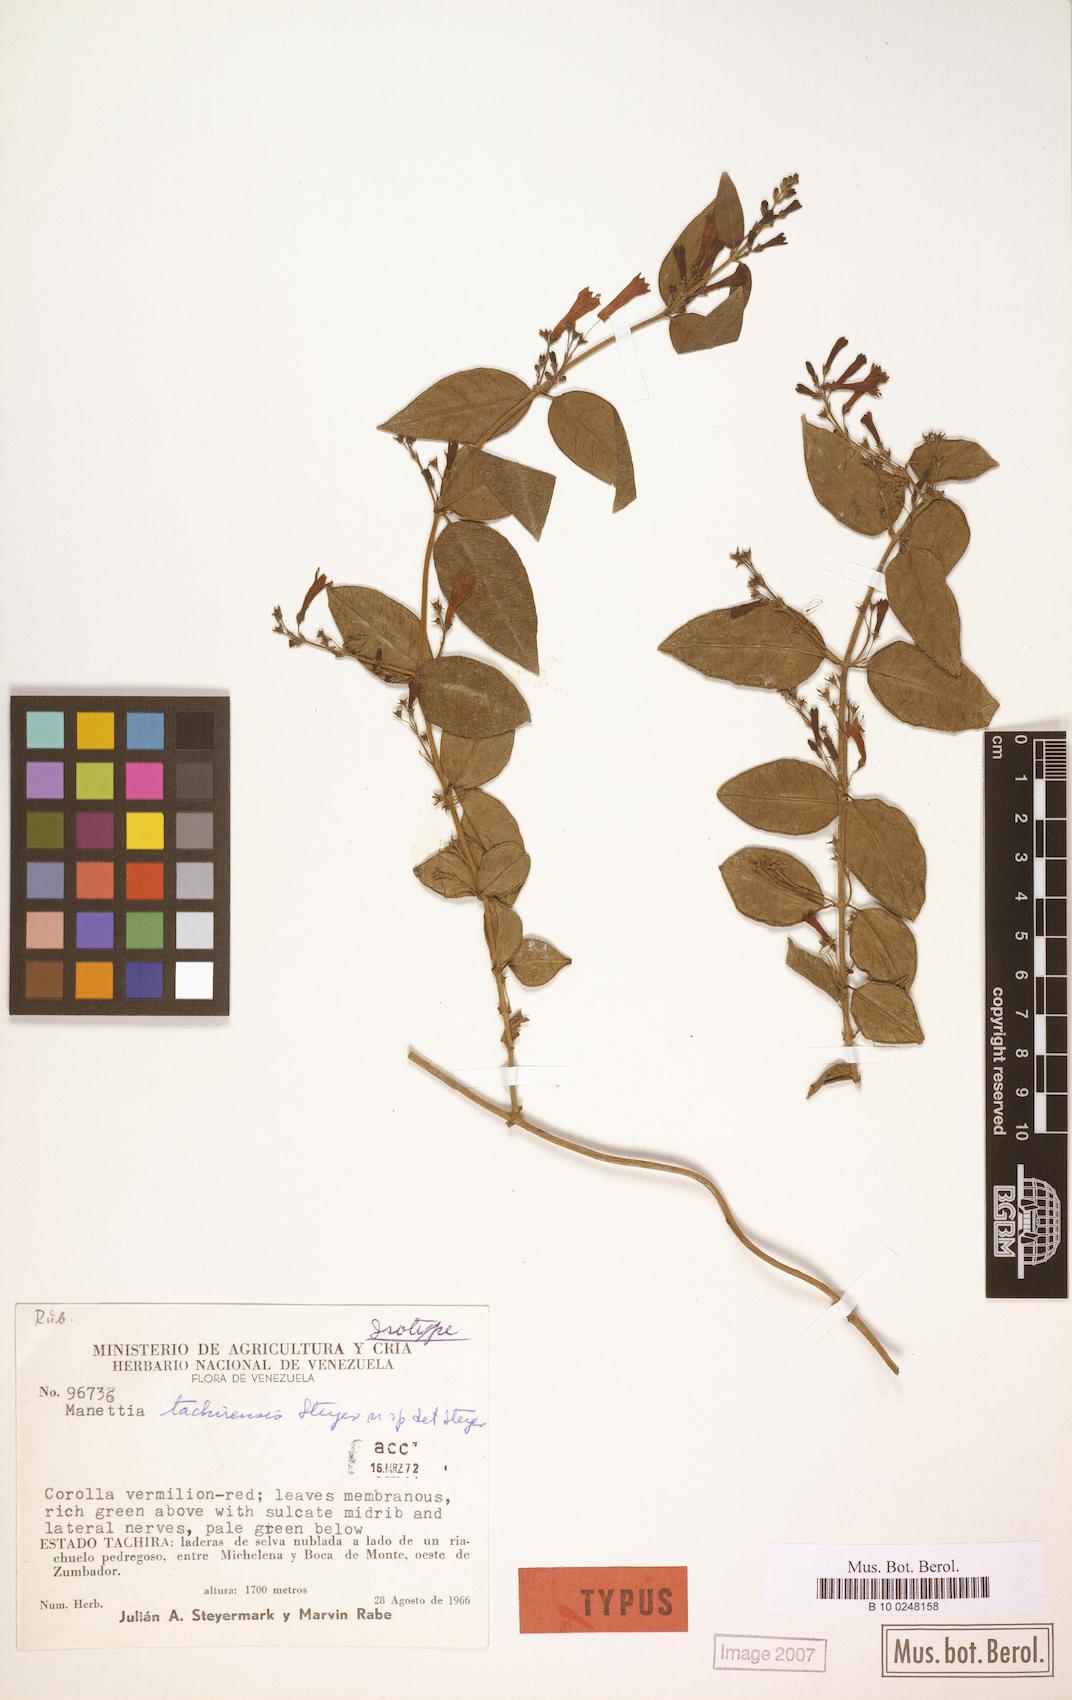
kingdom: Plantae
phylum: Tracheophyta
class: Magnoliopsida
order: Gentianales
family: Rubiaceae
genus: Manettia
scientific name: Manettia tachirensis
